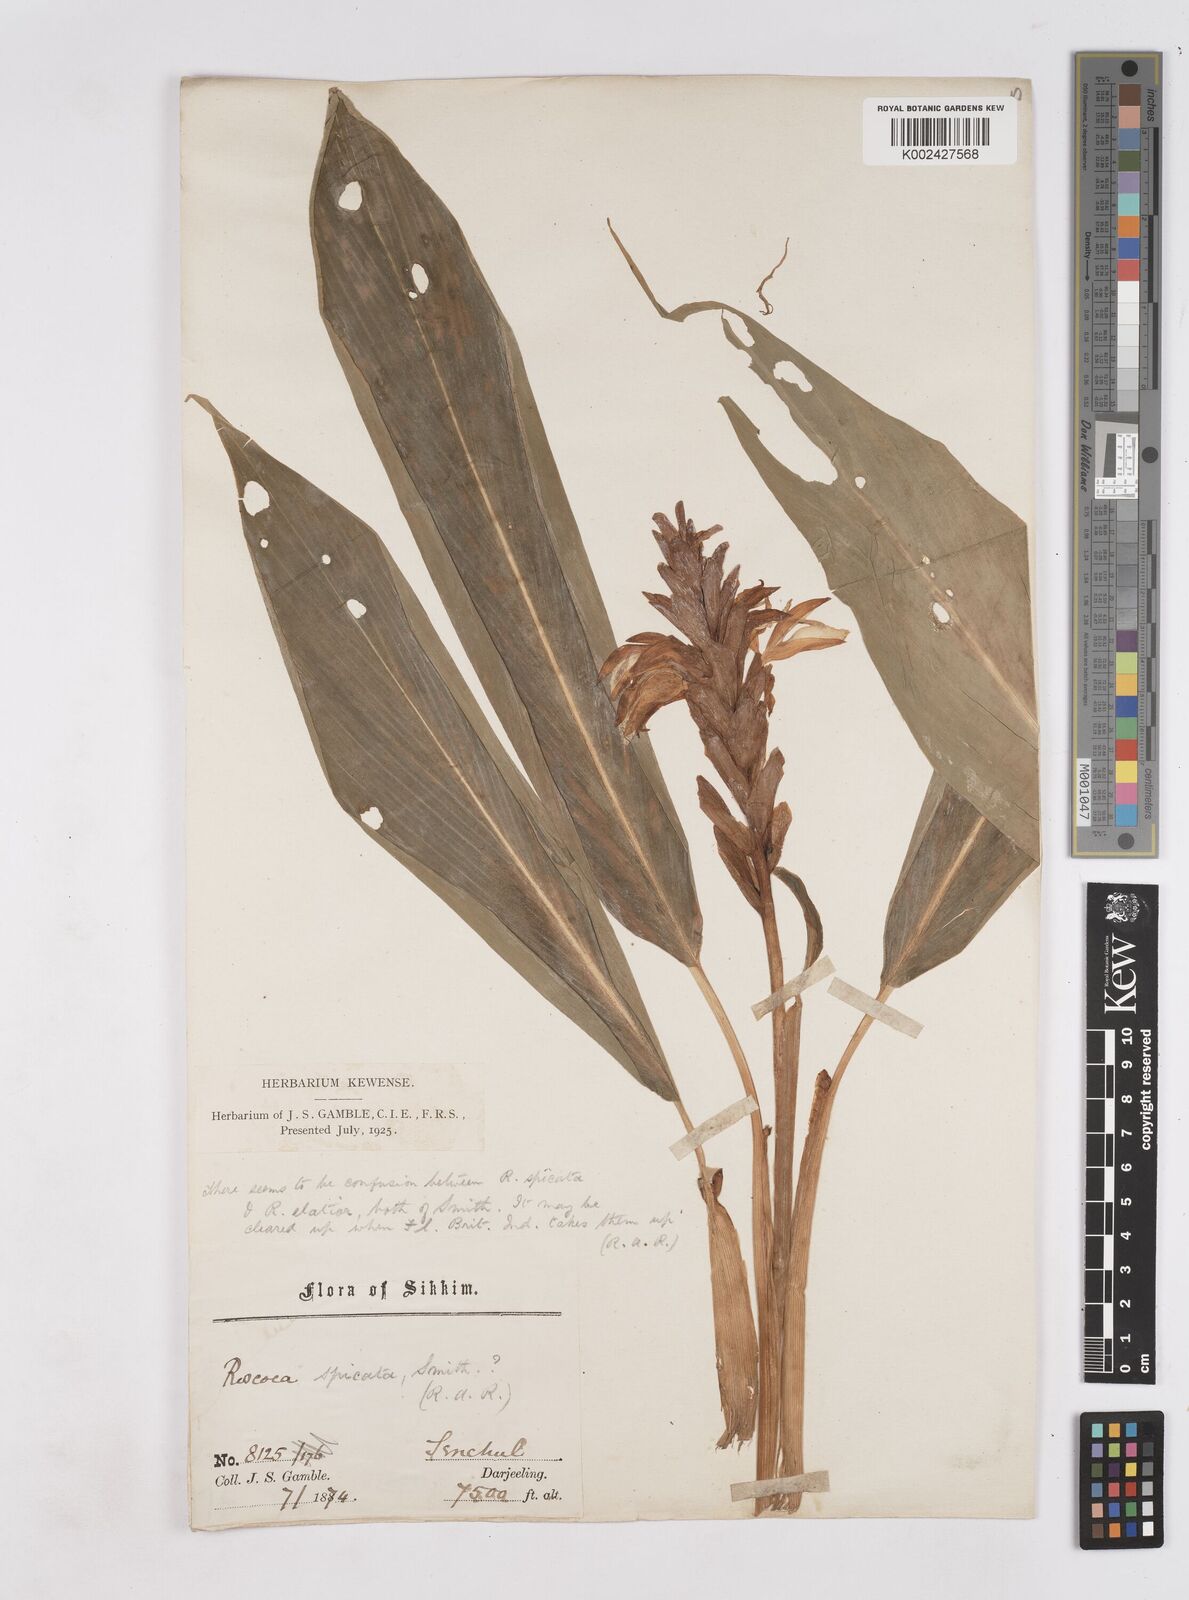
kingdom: Plantae
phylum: Tracheophyta
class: Liliopsida
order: Zingiberales
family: Zingiberaceae
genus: Cautleya
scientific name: Cautleya spicata
